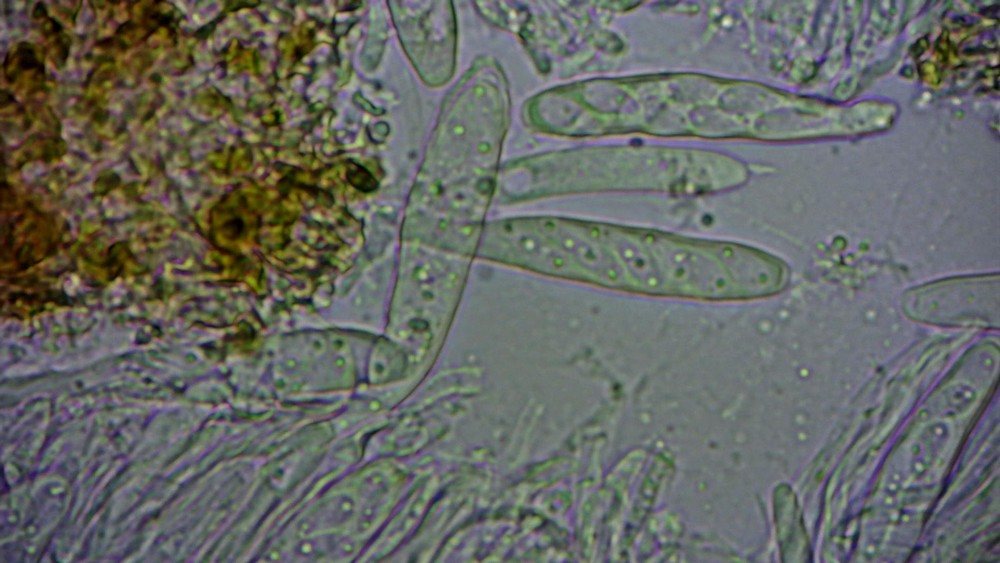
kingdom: Fungi
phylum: Ascomycota
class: Leotiomycetes
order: Helotiales
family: Drepanopezizaceae
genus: Pseudopeziza
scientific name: Pseudopeziza trifolii
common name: kløver-bladskive
